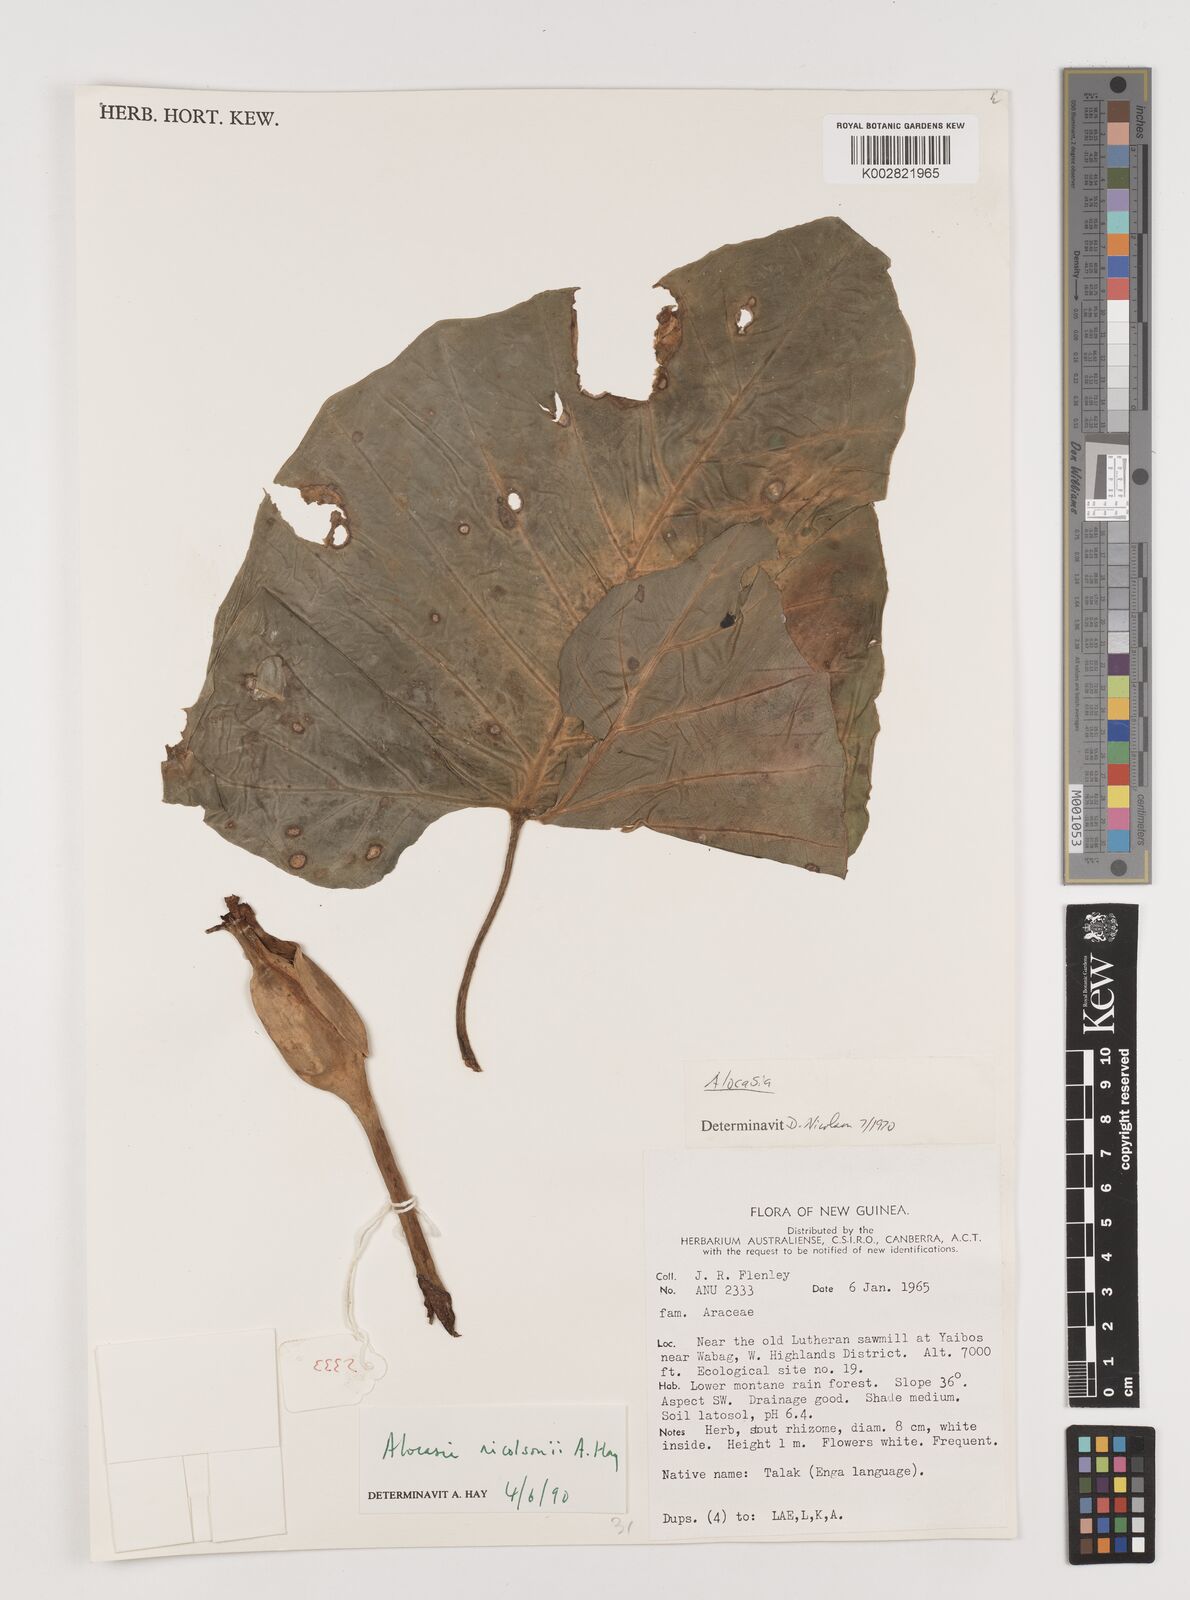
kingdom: Plantae
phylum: Tracheophyta
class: Liliopsida
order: Alismatales
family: Araceae
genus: Alocasia
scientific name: Alocasia nicolsonii
